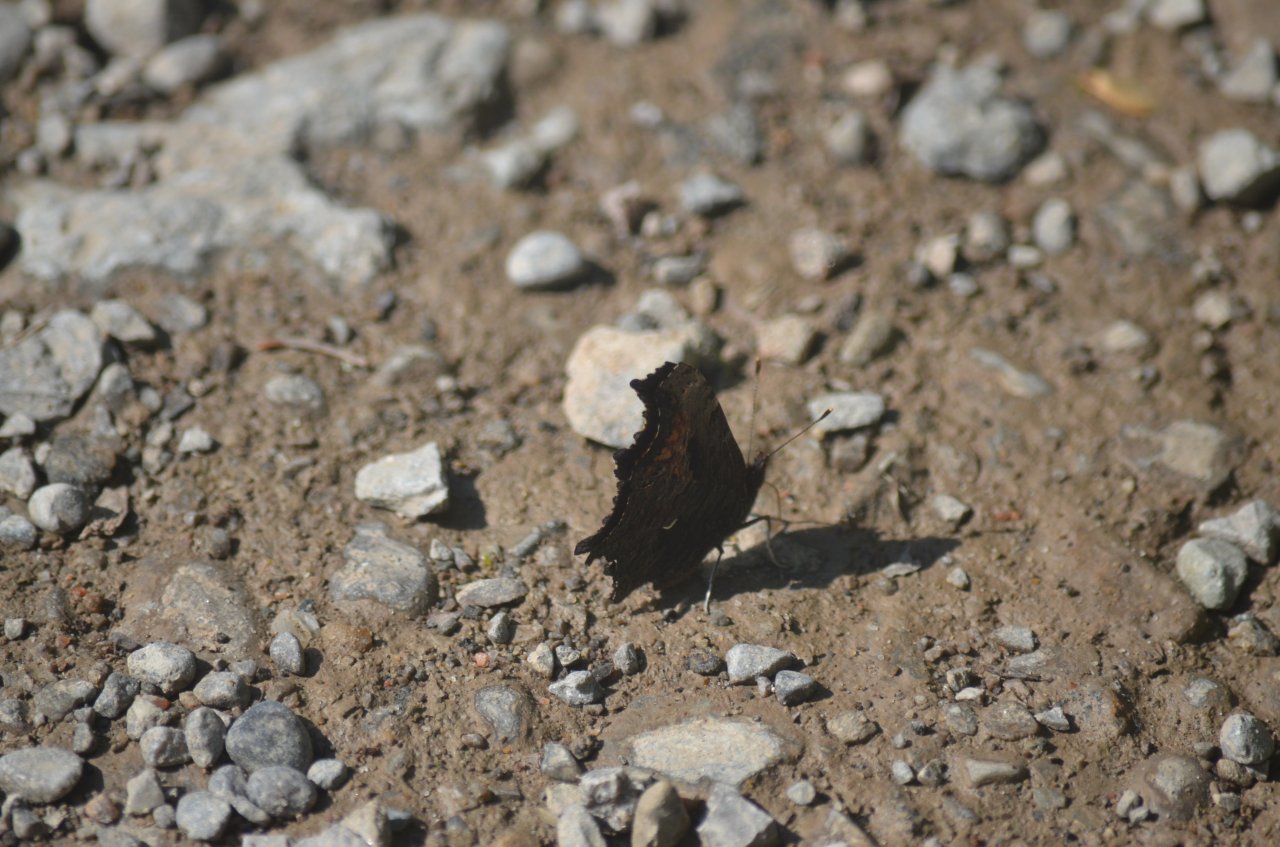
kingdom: Animalia
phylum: Arthropoda
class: Insecta
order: Lepidoptera
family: Nymphalidae
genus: Polygonia
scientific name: Polygonia progne
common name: Gray Comma
